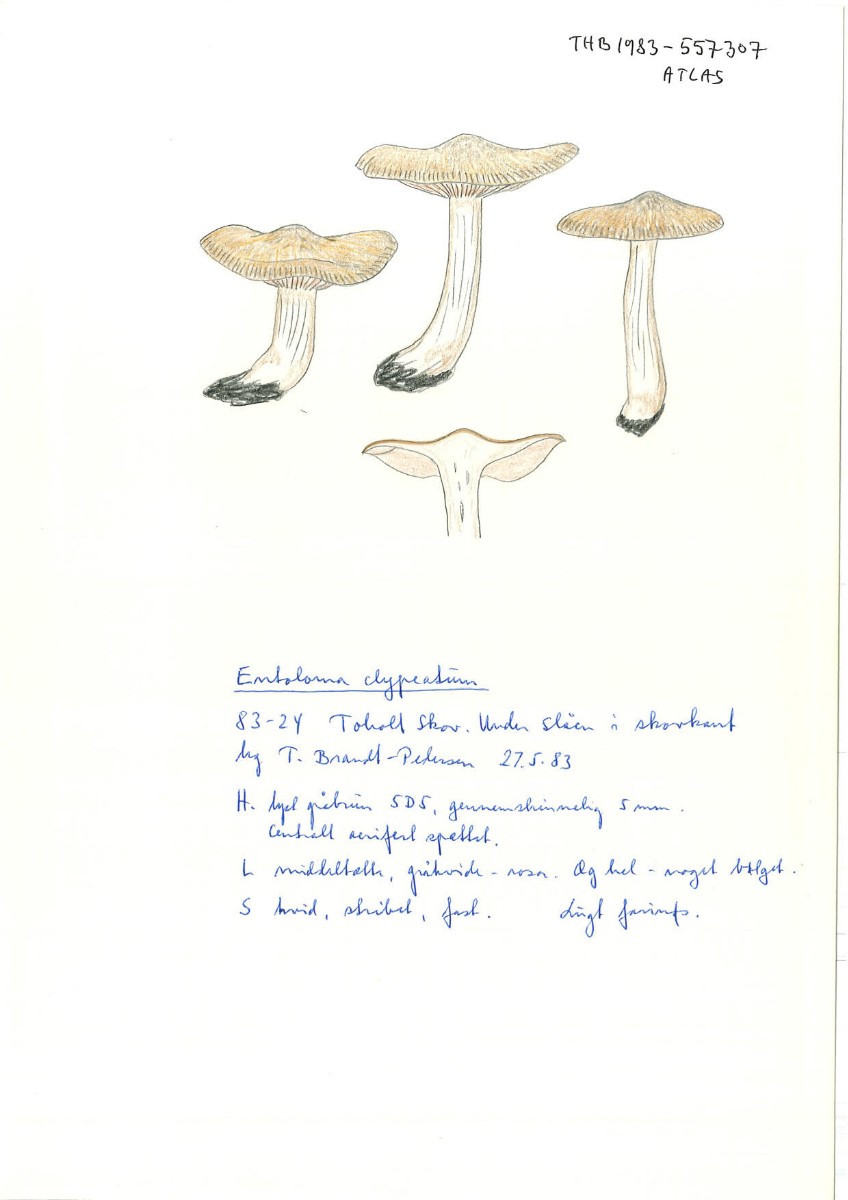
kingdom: Fungi
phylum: Basidiomycota
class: Agaricomycetes
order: Agaricales
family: Entolomataceae
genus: Entoloma
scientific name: Entoloma clypeatum
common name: flammet rødblad
